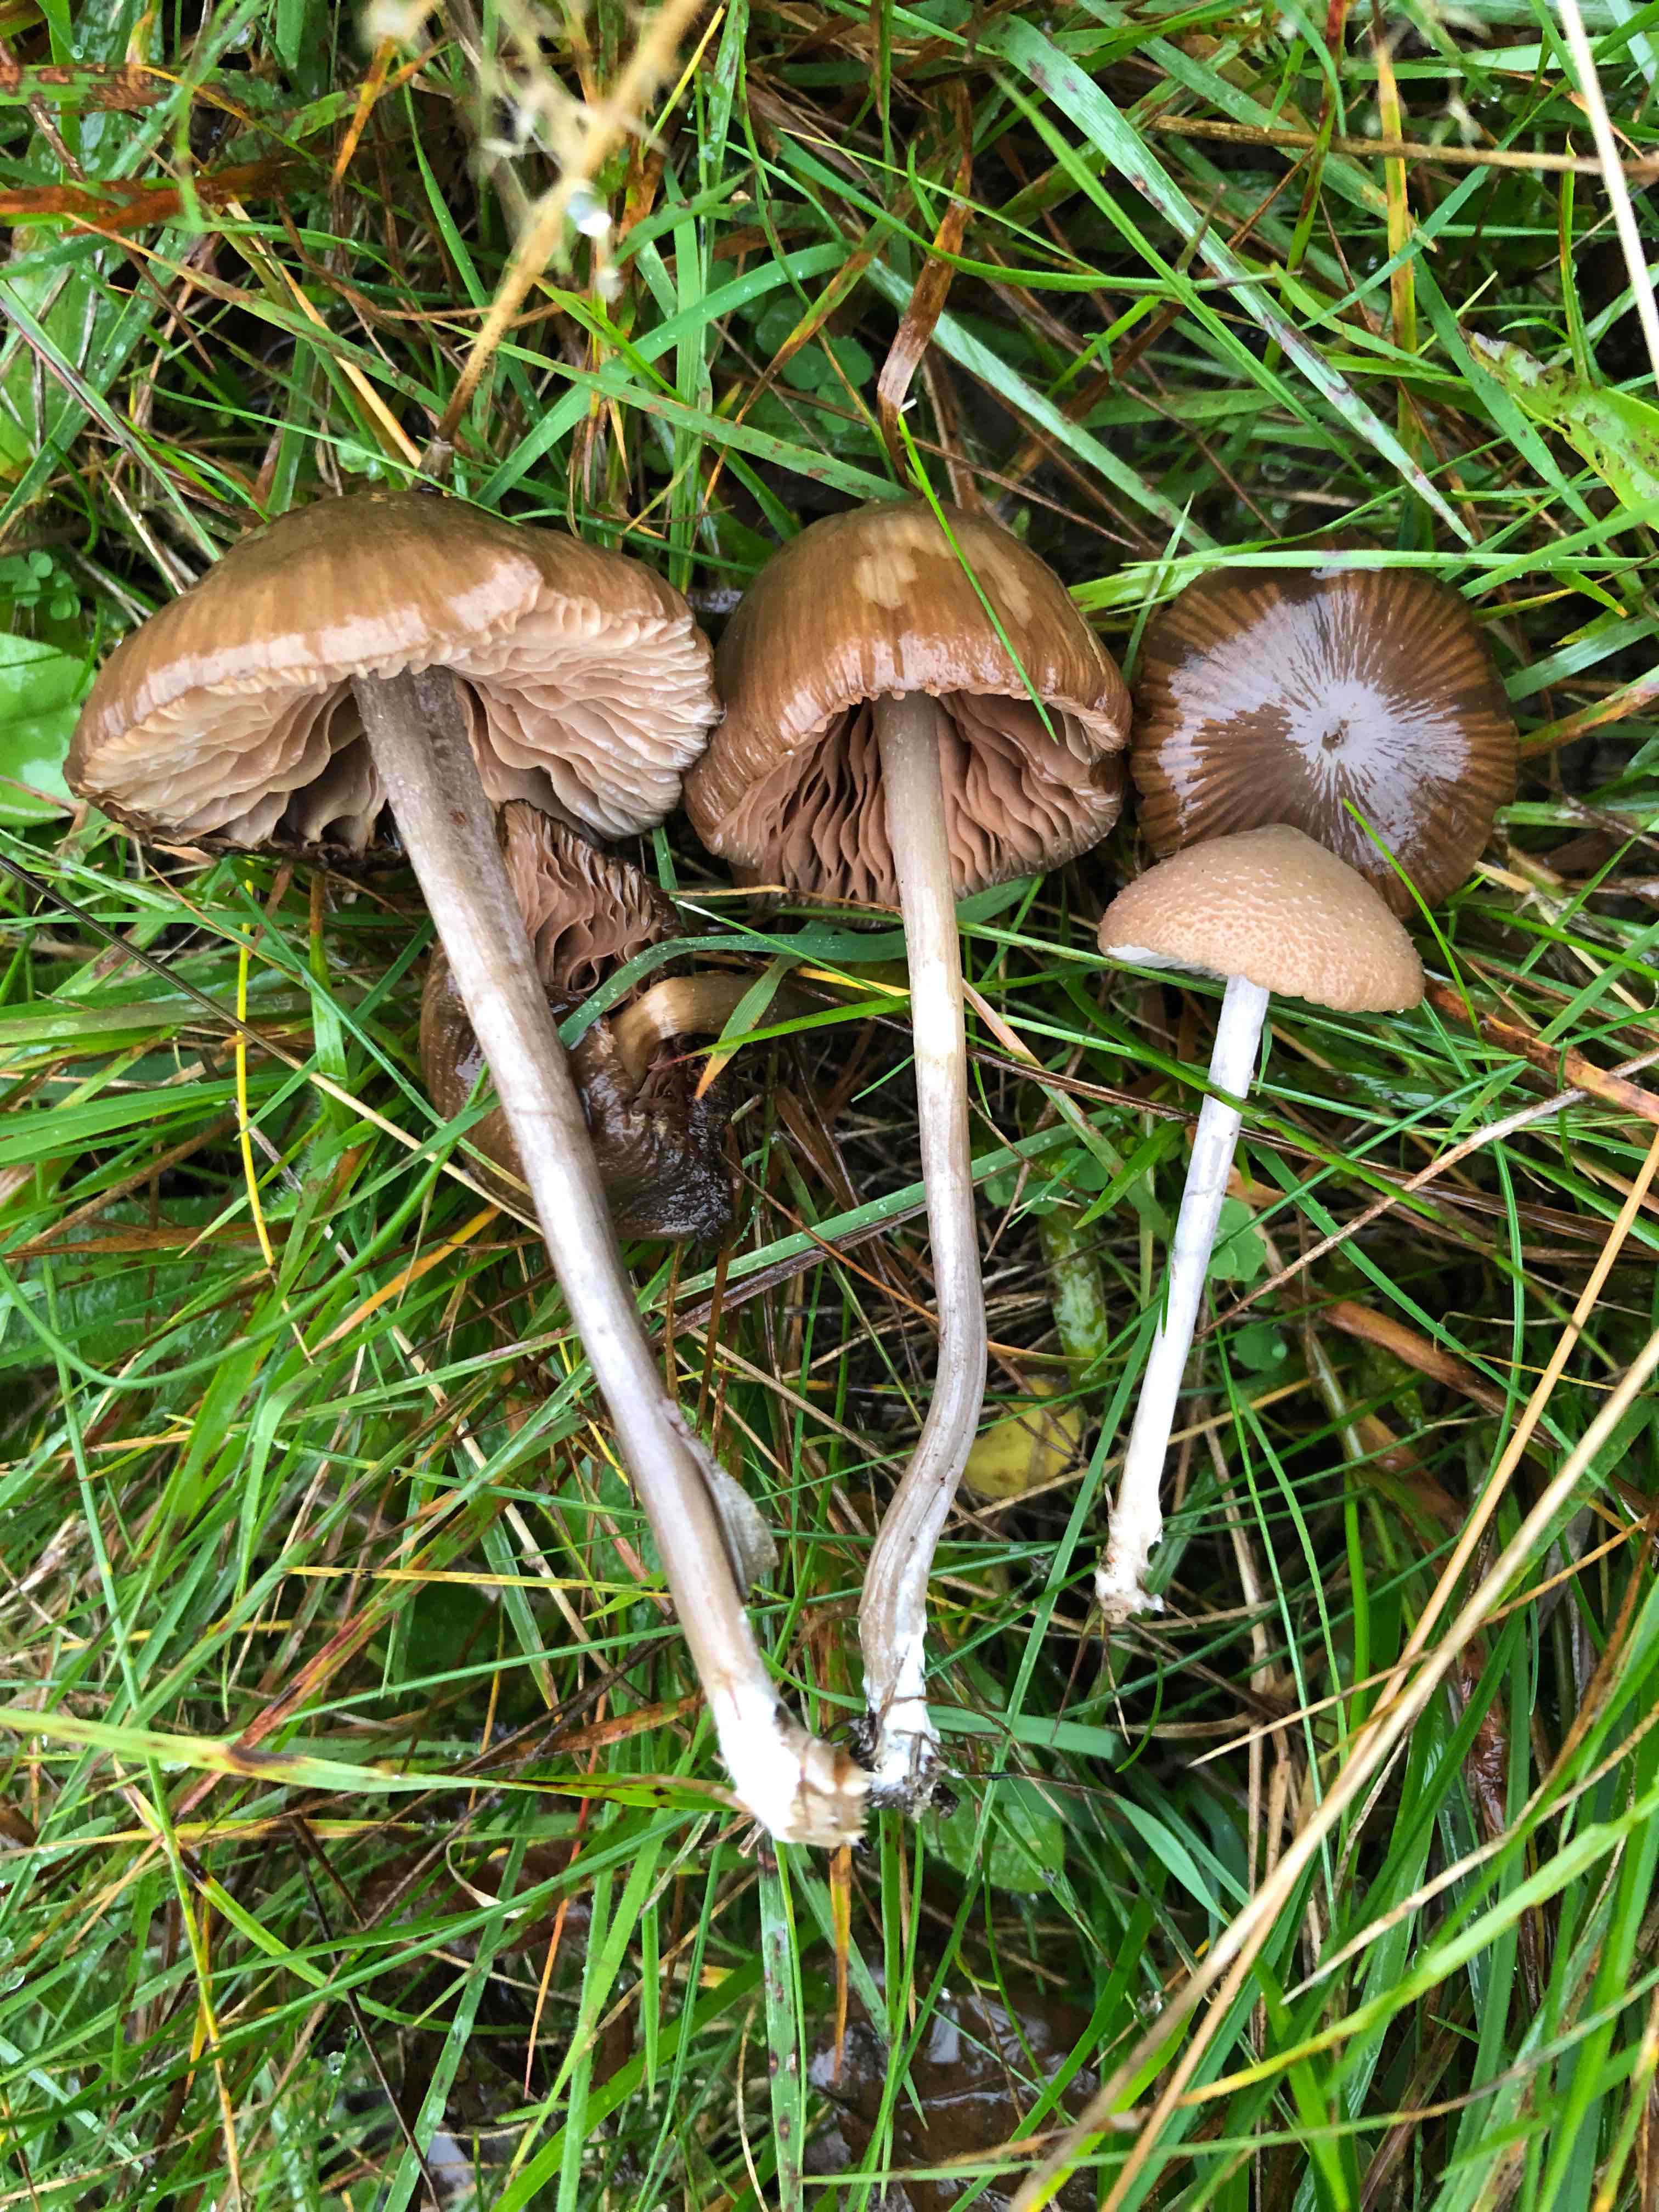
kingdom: Fungi
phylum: Basidiomycota
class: Agaricomycetes
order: Agaricales
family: Entolomataceae
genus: Entoloma
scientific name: Entoloma griseocyaneum
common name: gråblå rødblad
